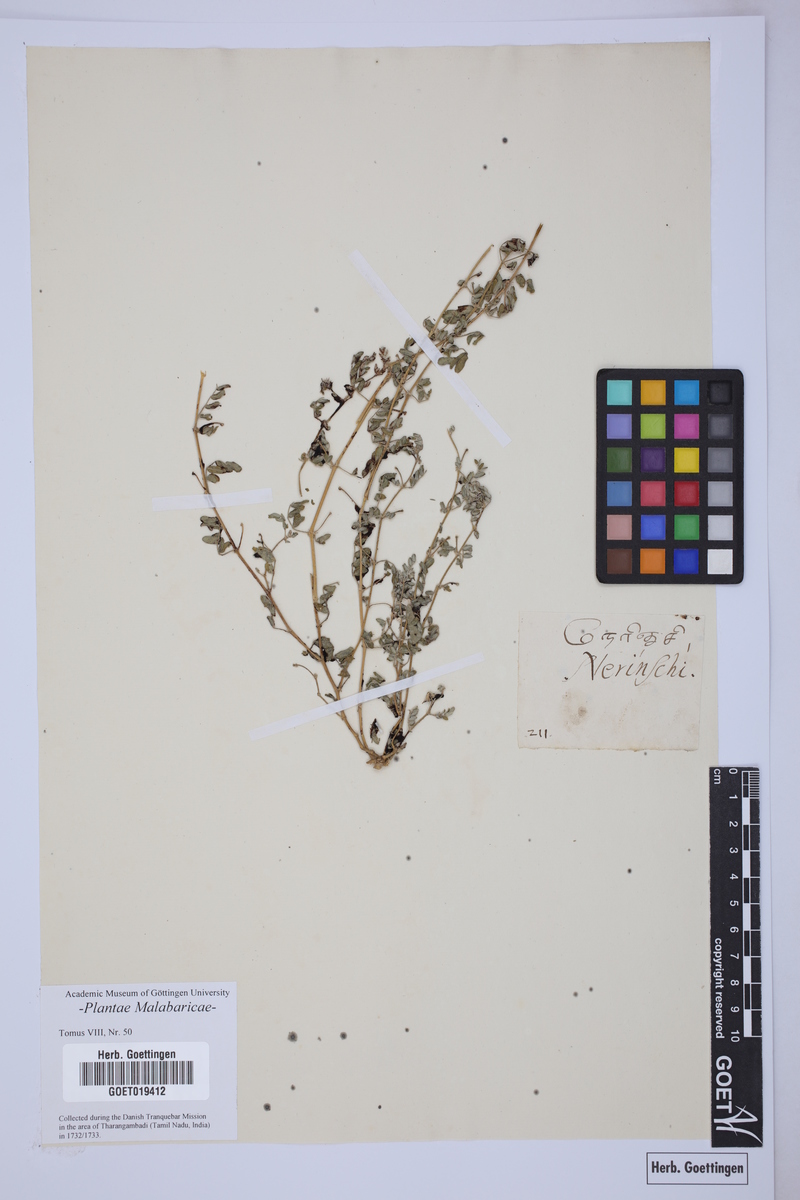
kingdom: Plantae
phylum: Tracheophyta
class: Magnoliopsida
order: Zygophyllales
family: Zygophyllaceae
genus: Tribulus
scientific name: Tribulus terrestris
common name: Puncturevine
